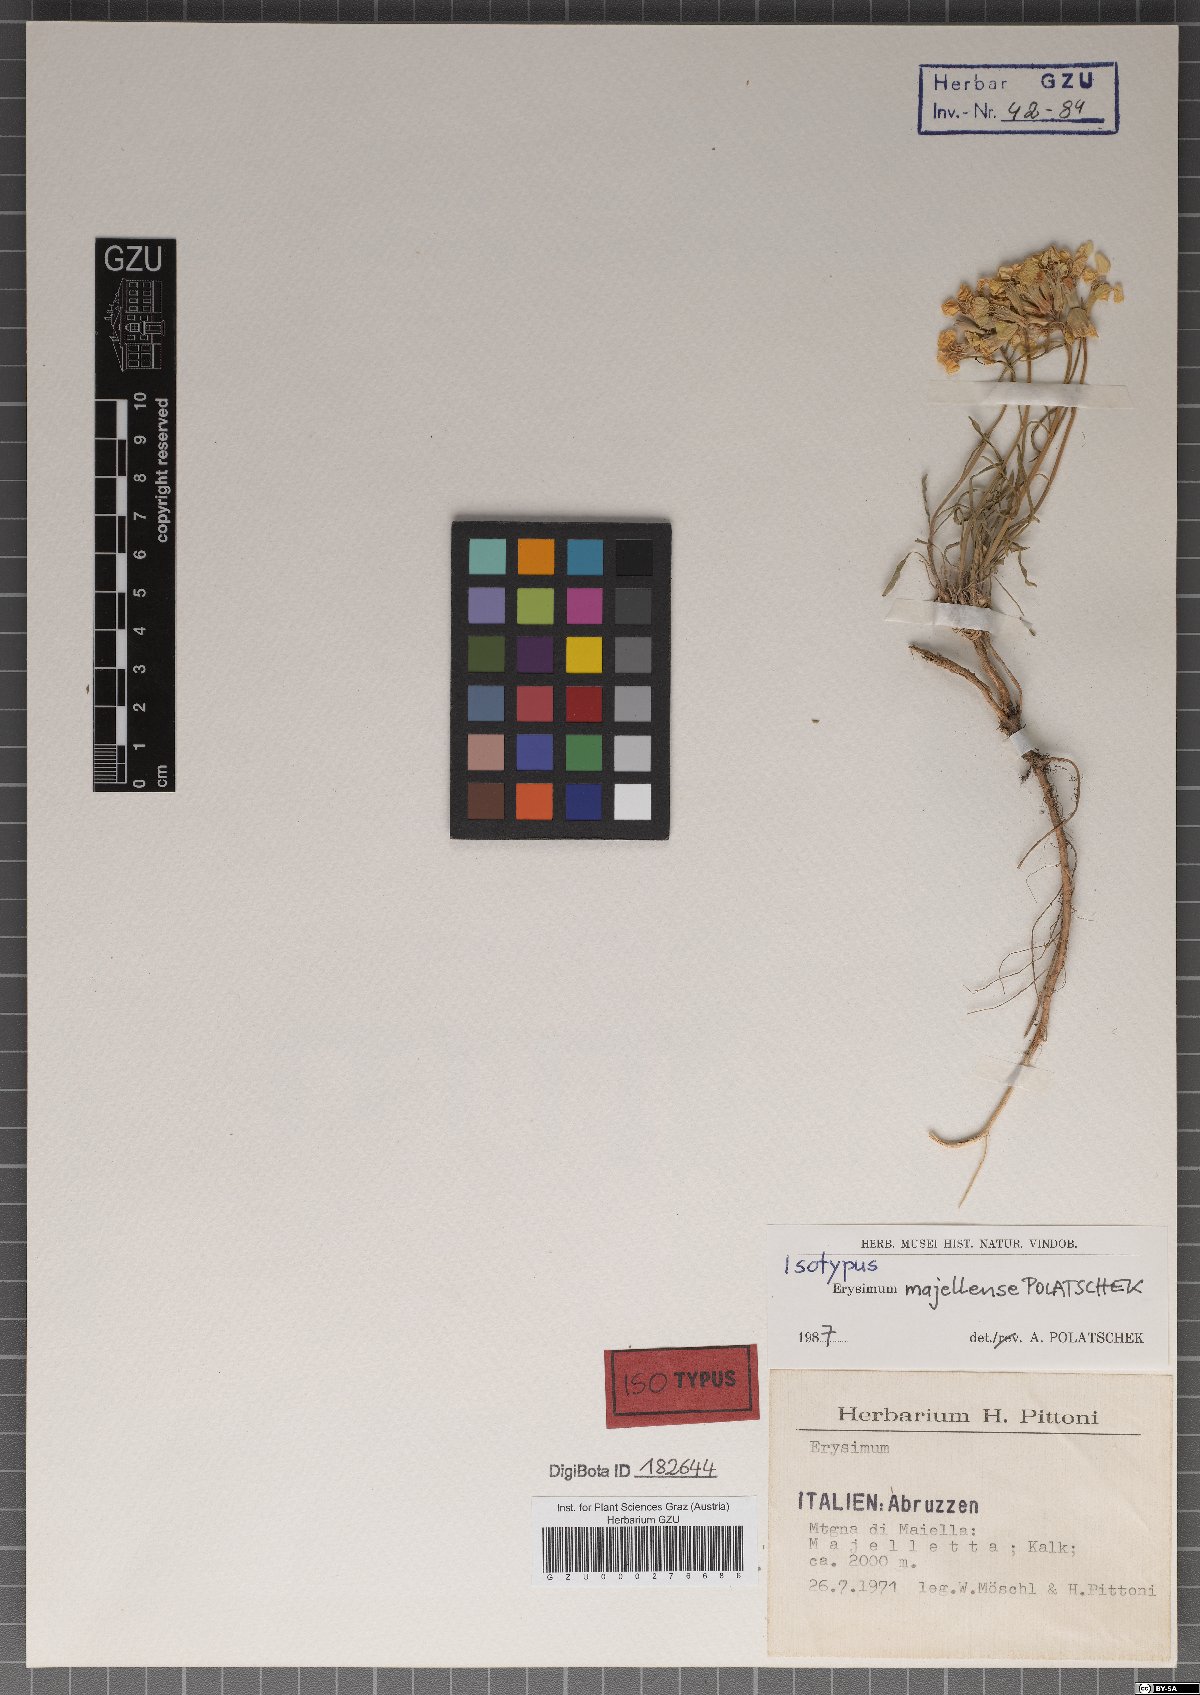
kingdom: Plantae
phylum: Tracheophyta
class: Magnoliopsida
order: Brassicales
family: Brassicaceae
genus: Erysimum
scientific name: Erysimum majellense
